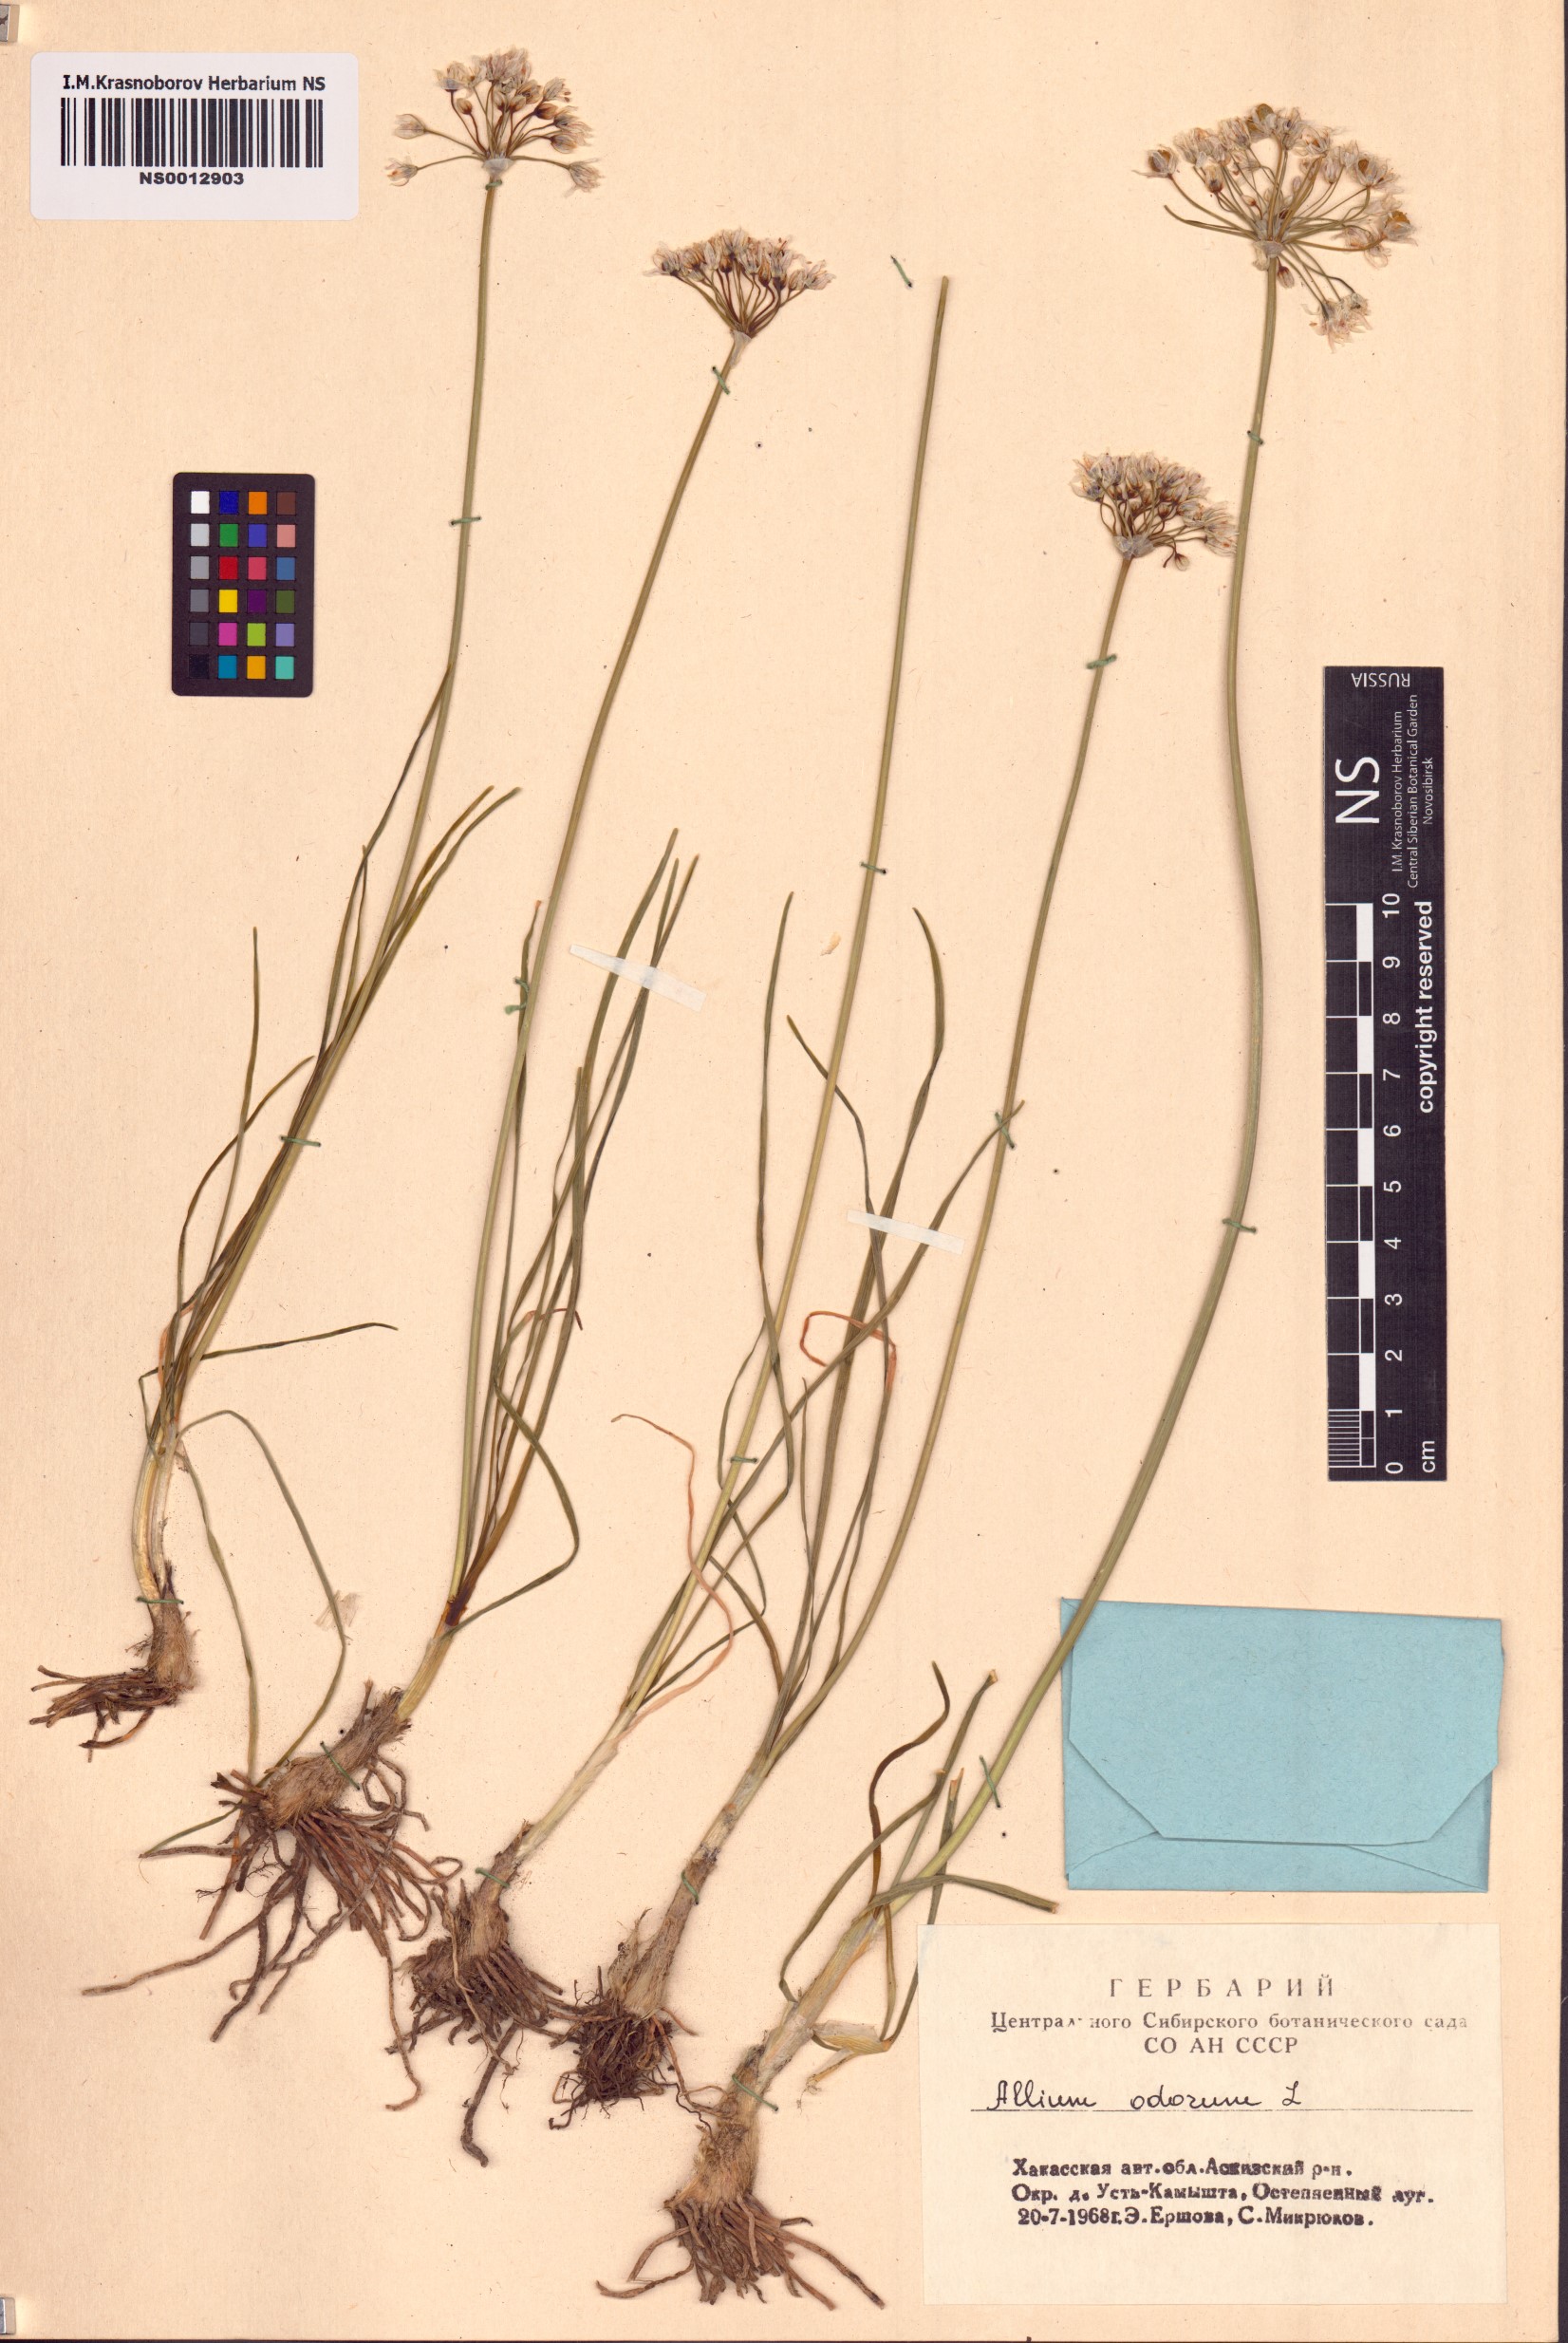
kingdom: Plantae
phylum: Tracheophyta
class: Liliopsida
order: Asparagales
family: Amaryllidaceae
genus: Allium
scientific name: Allium ramosum
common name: Fragrant garlic
